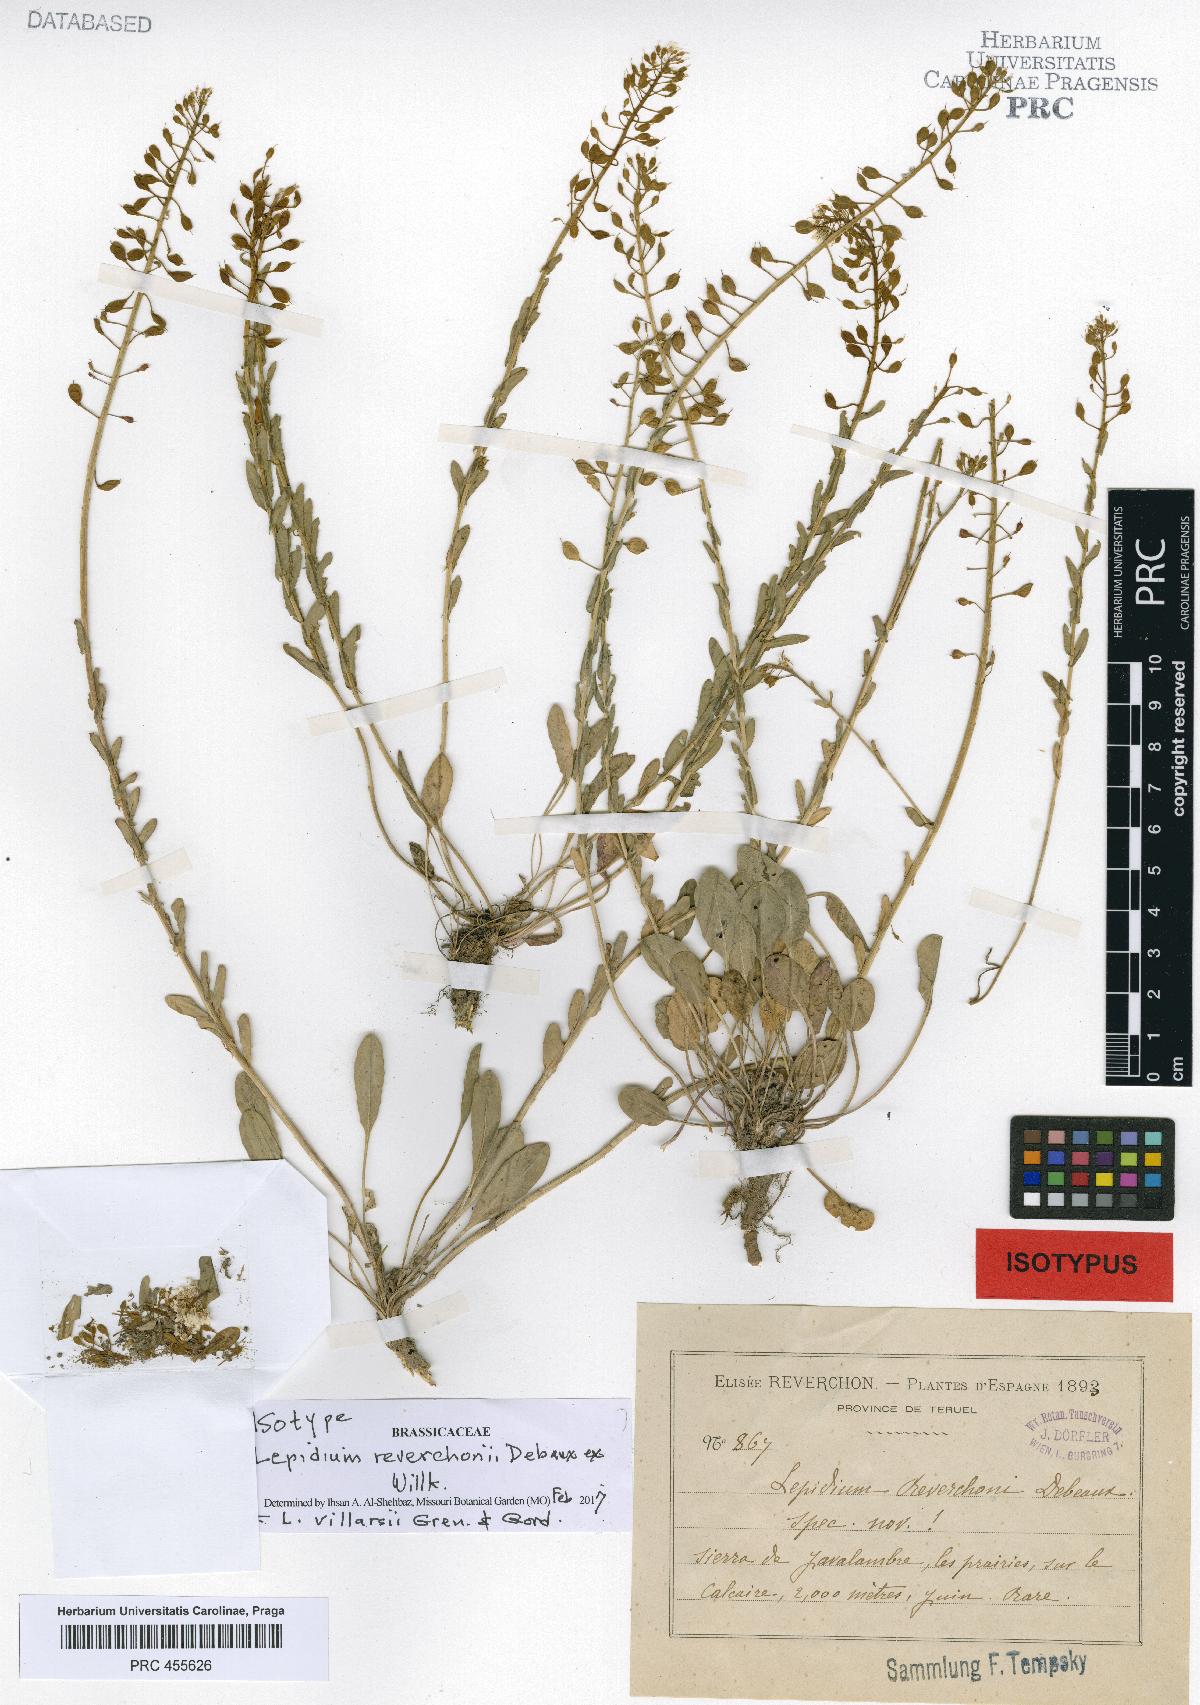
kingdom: Plantae
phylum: Tracheophyta
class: Magnoliopsida
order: Brassicales
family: Brassicaceae
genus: Lepidium
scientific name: Lepidium villarsii
